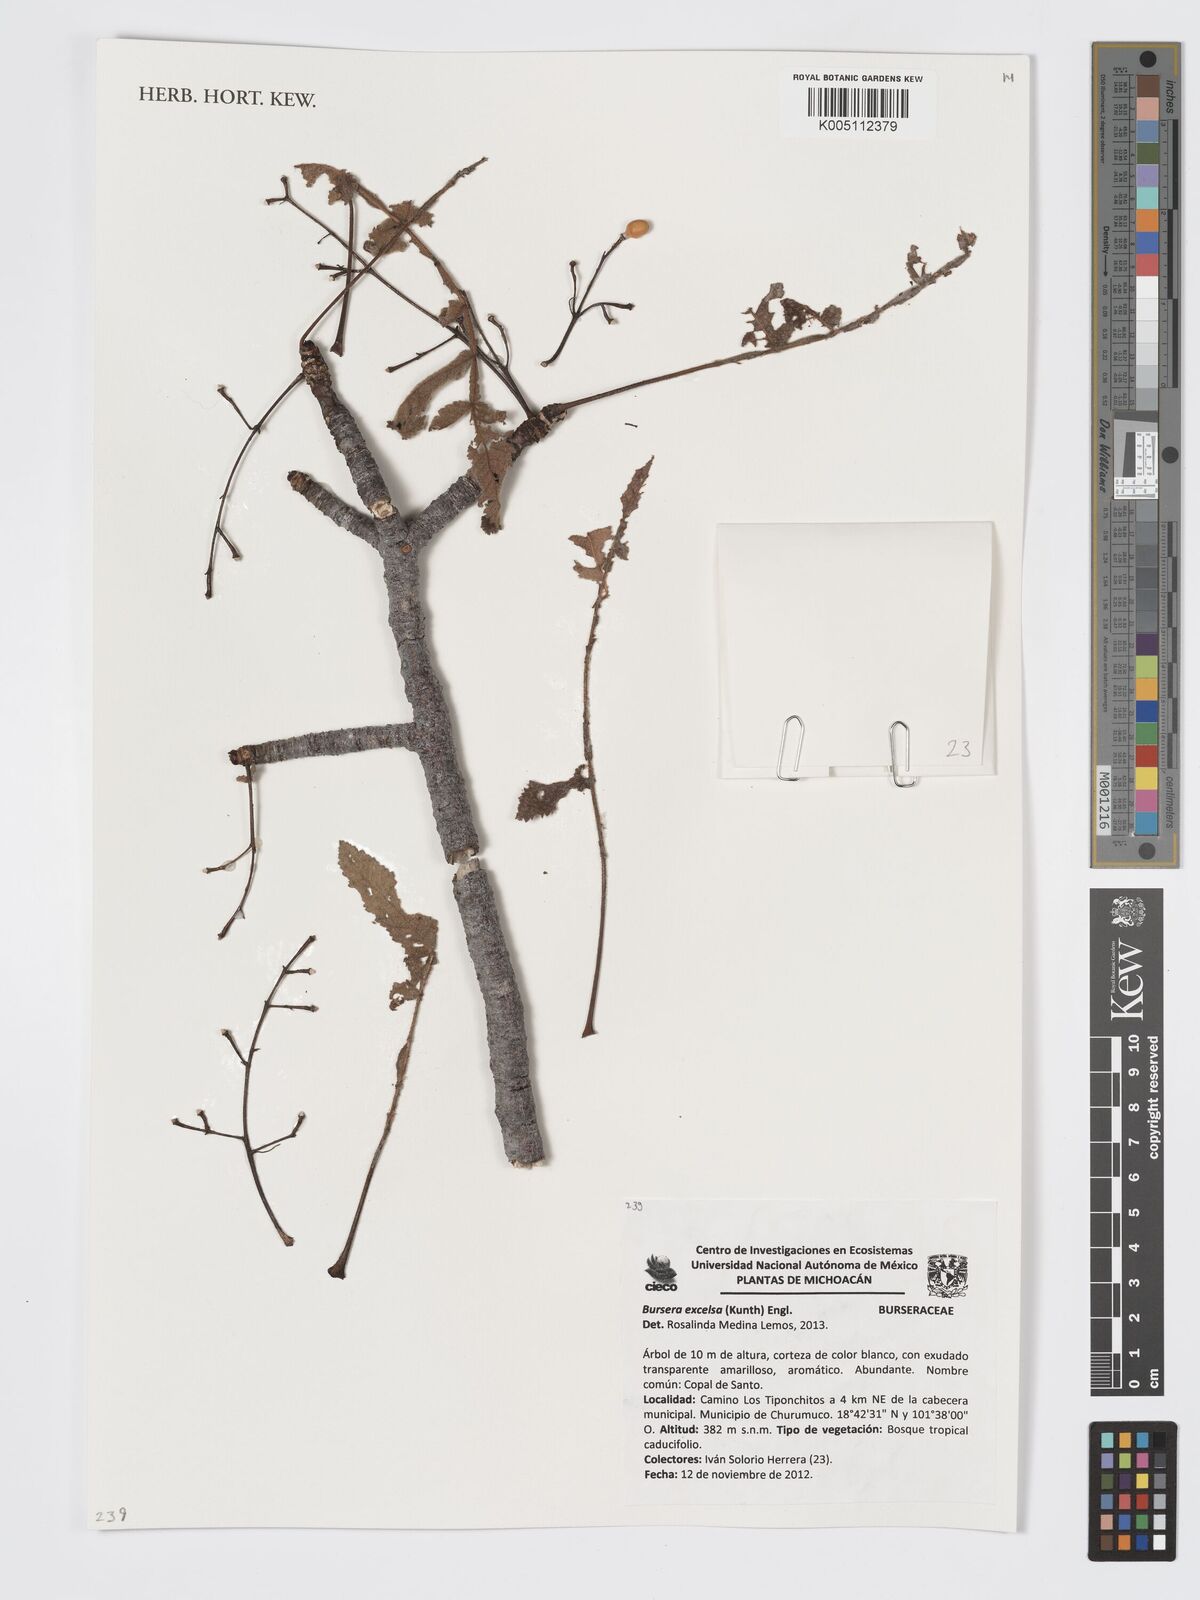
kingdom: Plantae
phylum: Tracheophyta
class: Magnoliopsida
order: Sapindales
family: Burseraceae
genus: Bursera
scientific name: Bursera excelsa
